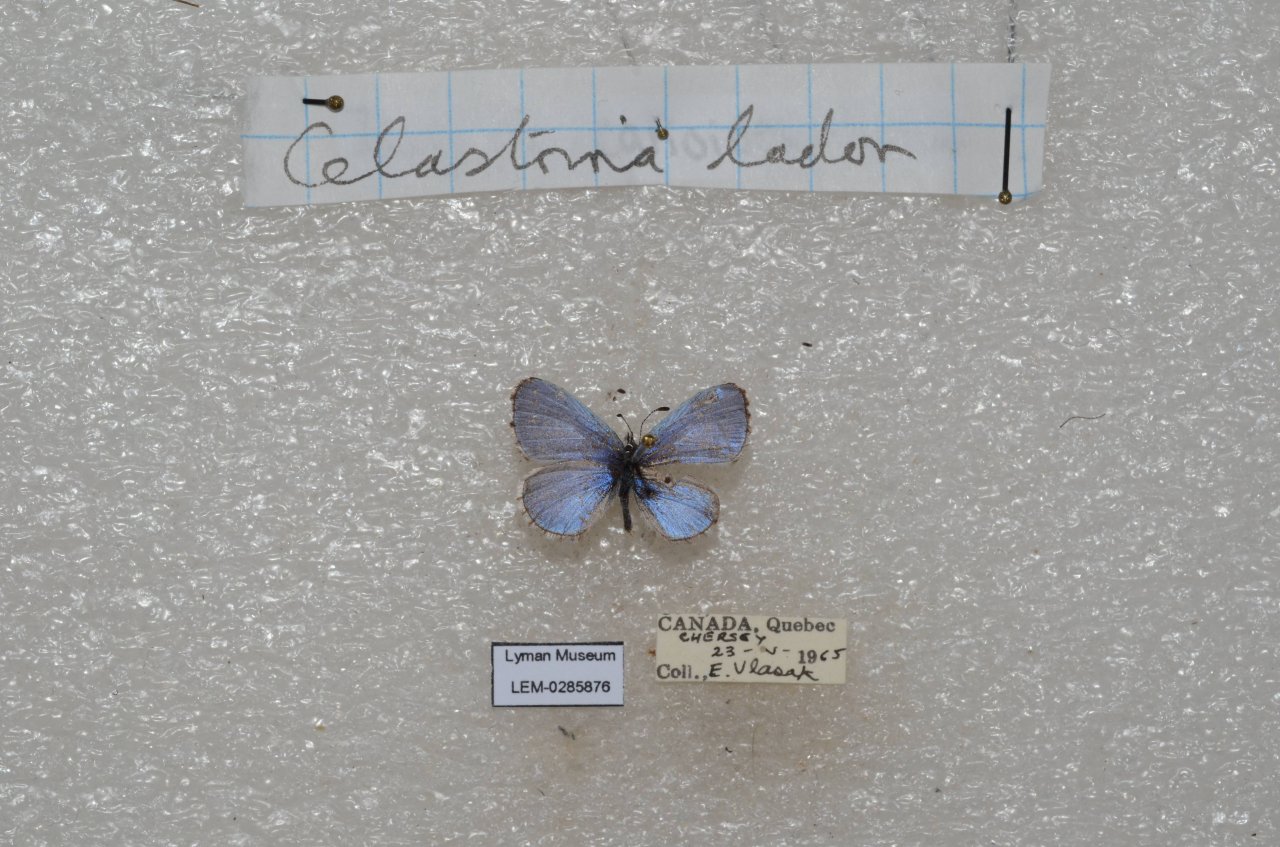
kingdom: Animalia
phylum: Arthropoda
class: Insecta
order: Lepidoptera
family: Lycaenidae
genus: Celastrina
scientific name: Celastrina lucia
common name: Northern Spring Azure
